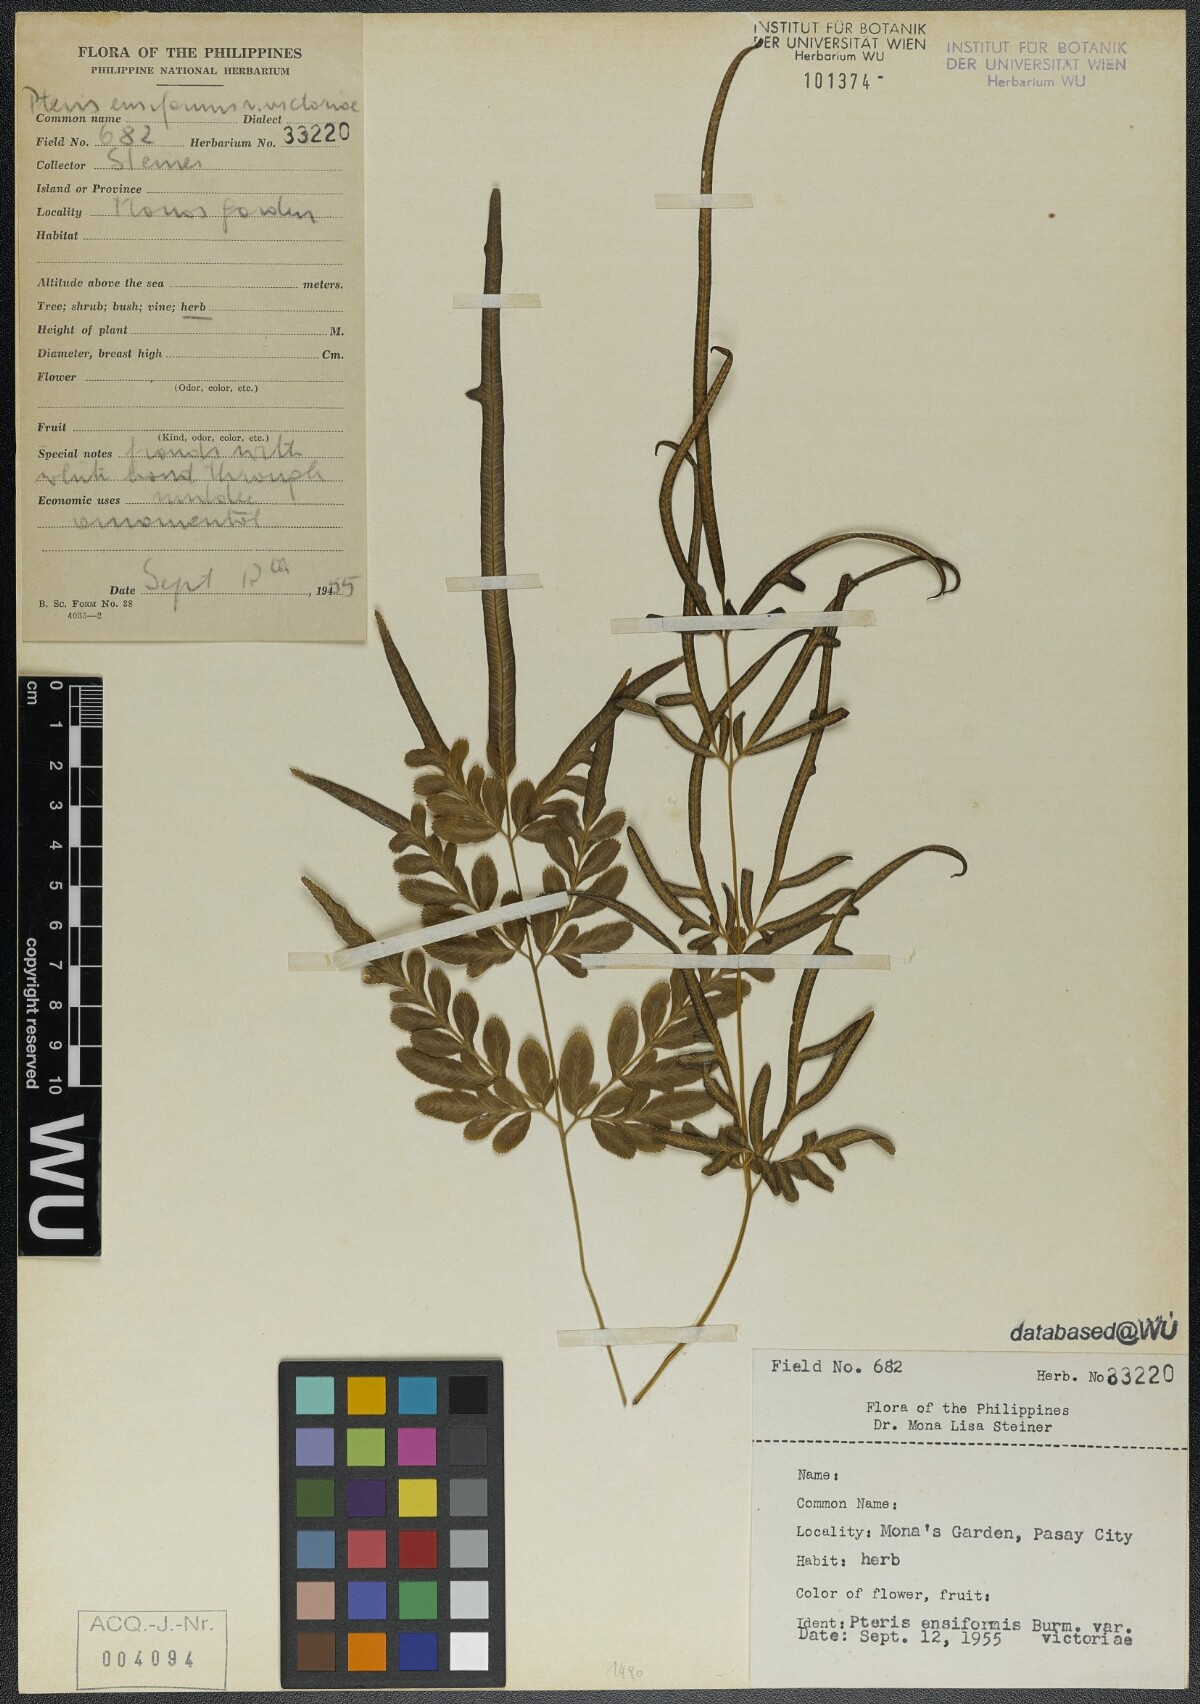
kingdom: Plantae
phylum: Tracheophyta
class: Polypodiopsida
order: Polypodiales
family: Pteridaceae
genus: Pteris
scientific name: Pteris ensiformis
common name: Sword brake
